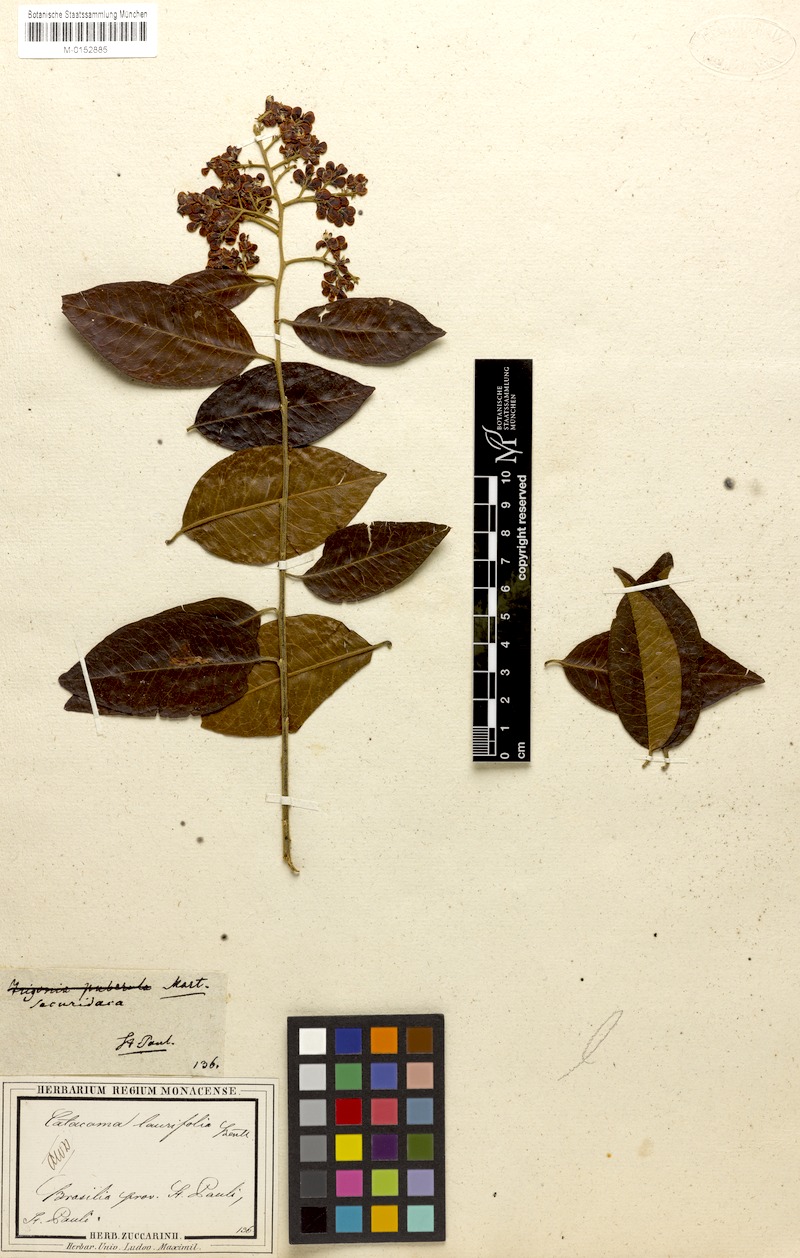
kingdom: Plantae
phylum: Tracheophyta
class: Magnoliopsida
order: Fabales
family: Polygalaceae
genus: Bredemeyera
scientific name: Bredemeyera laurifolia
